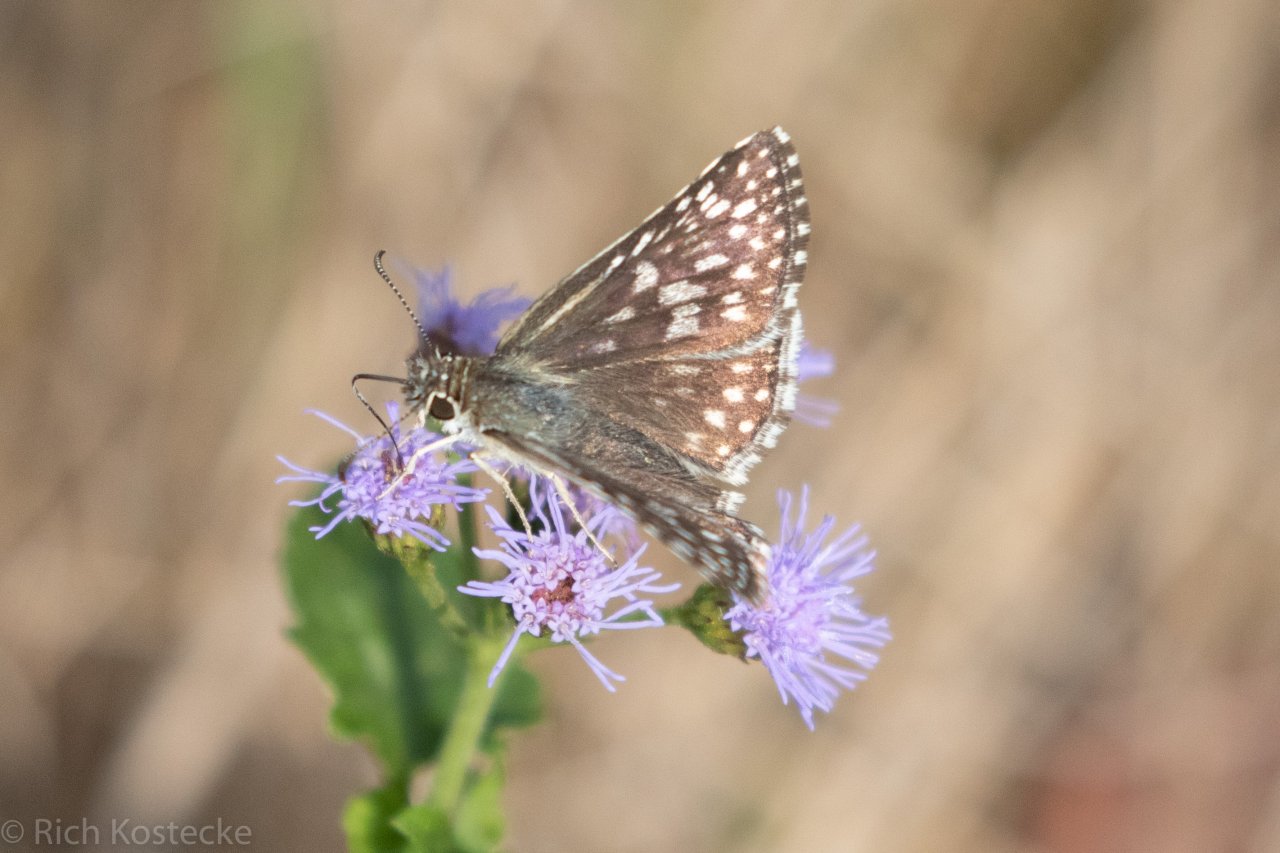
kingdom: Animalia
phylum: Arthropoda
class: Insecta
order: Lepidoptera
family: Hesperiidae
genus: Pyrgus
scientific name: Pyrgus
